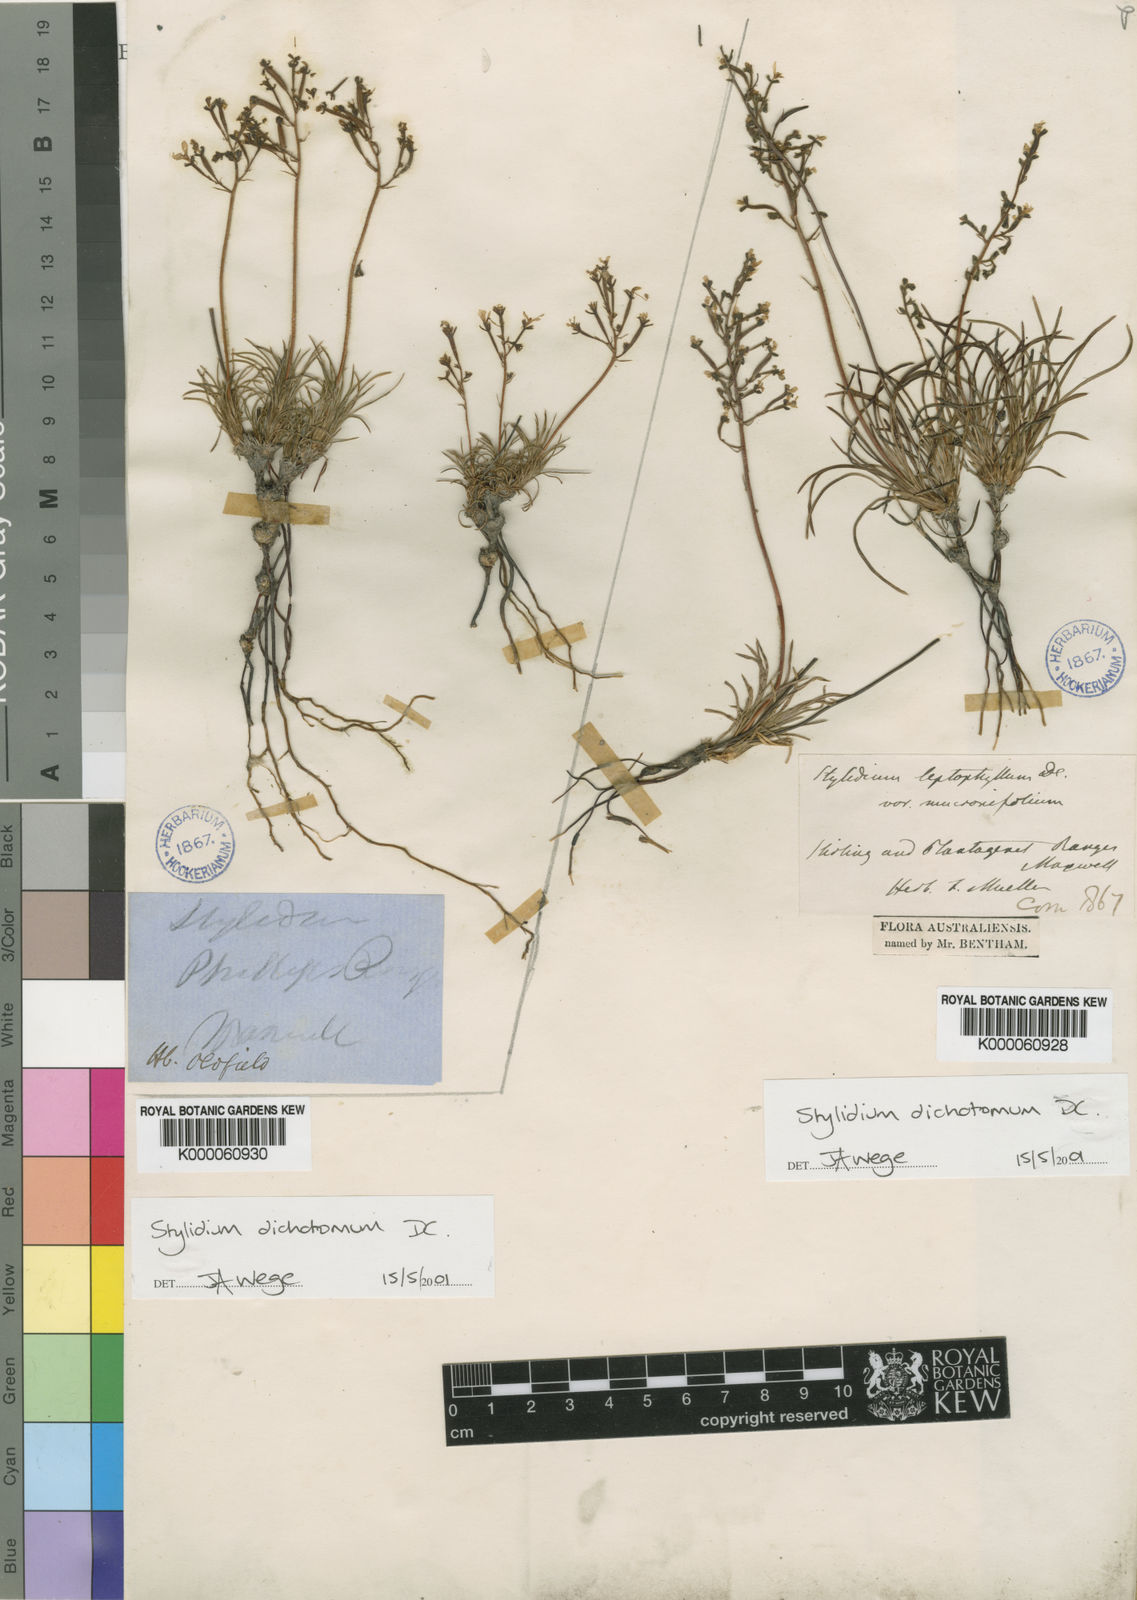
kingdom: Plantae
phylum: Tracheophyta
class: Magnoliopsida
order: Asterales
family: Stylidiaceae
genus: Stylidium
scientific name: Stylidium dichotomum
